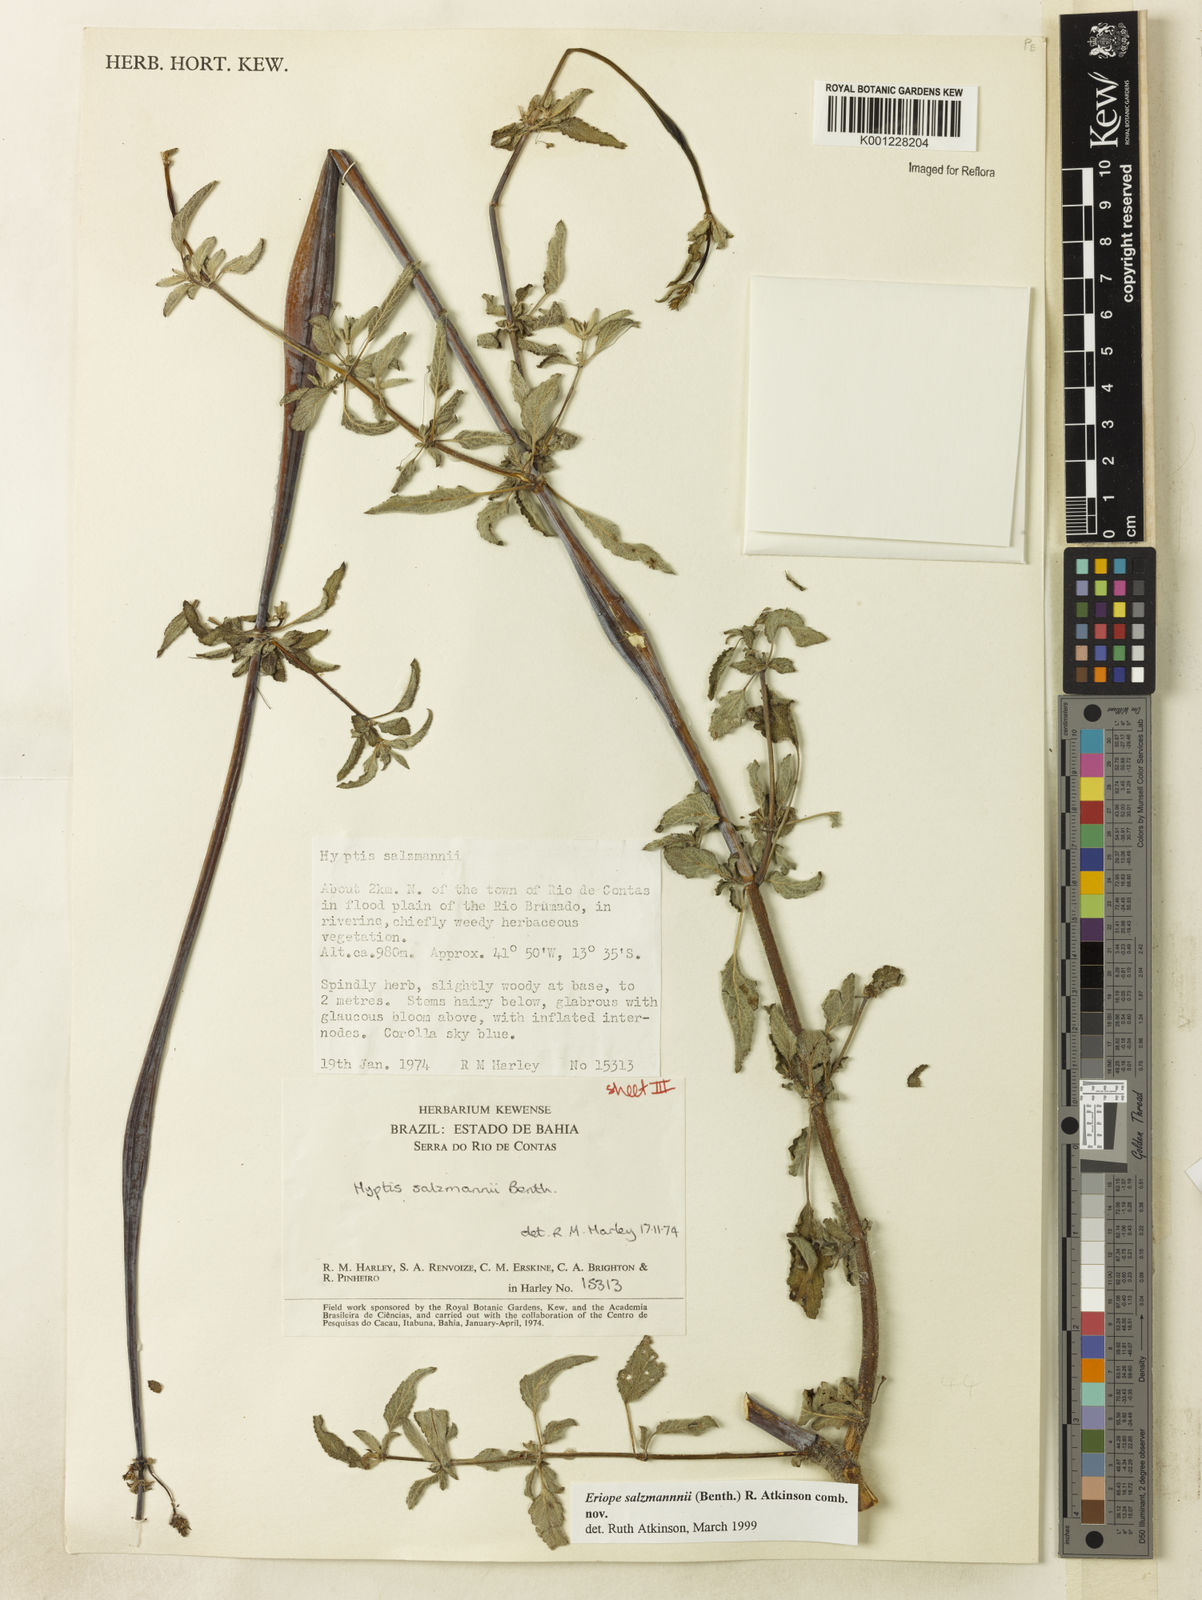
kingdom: Plantae
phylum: Tracheophyta
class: Magnoliopsida
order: Lamiales
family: Lamiaceae
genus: Hypenia
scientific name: Hypenia salzmannii
